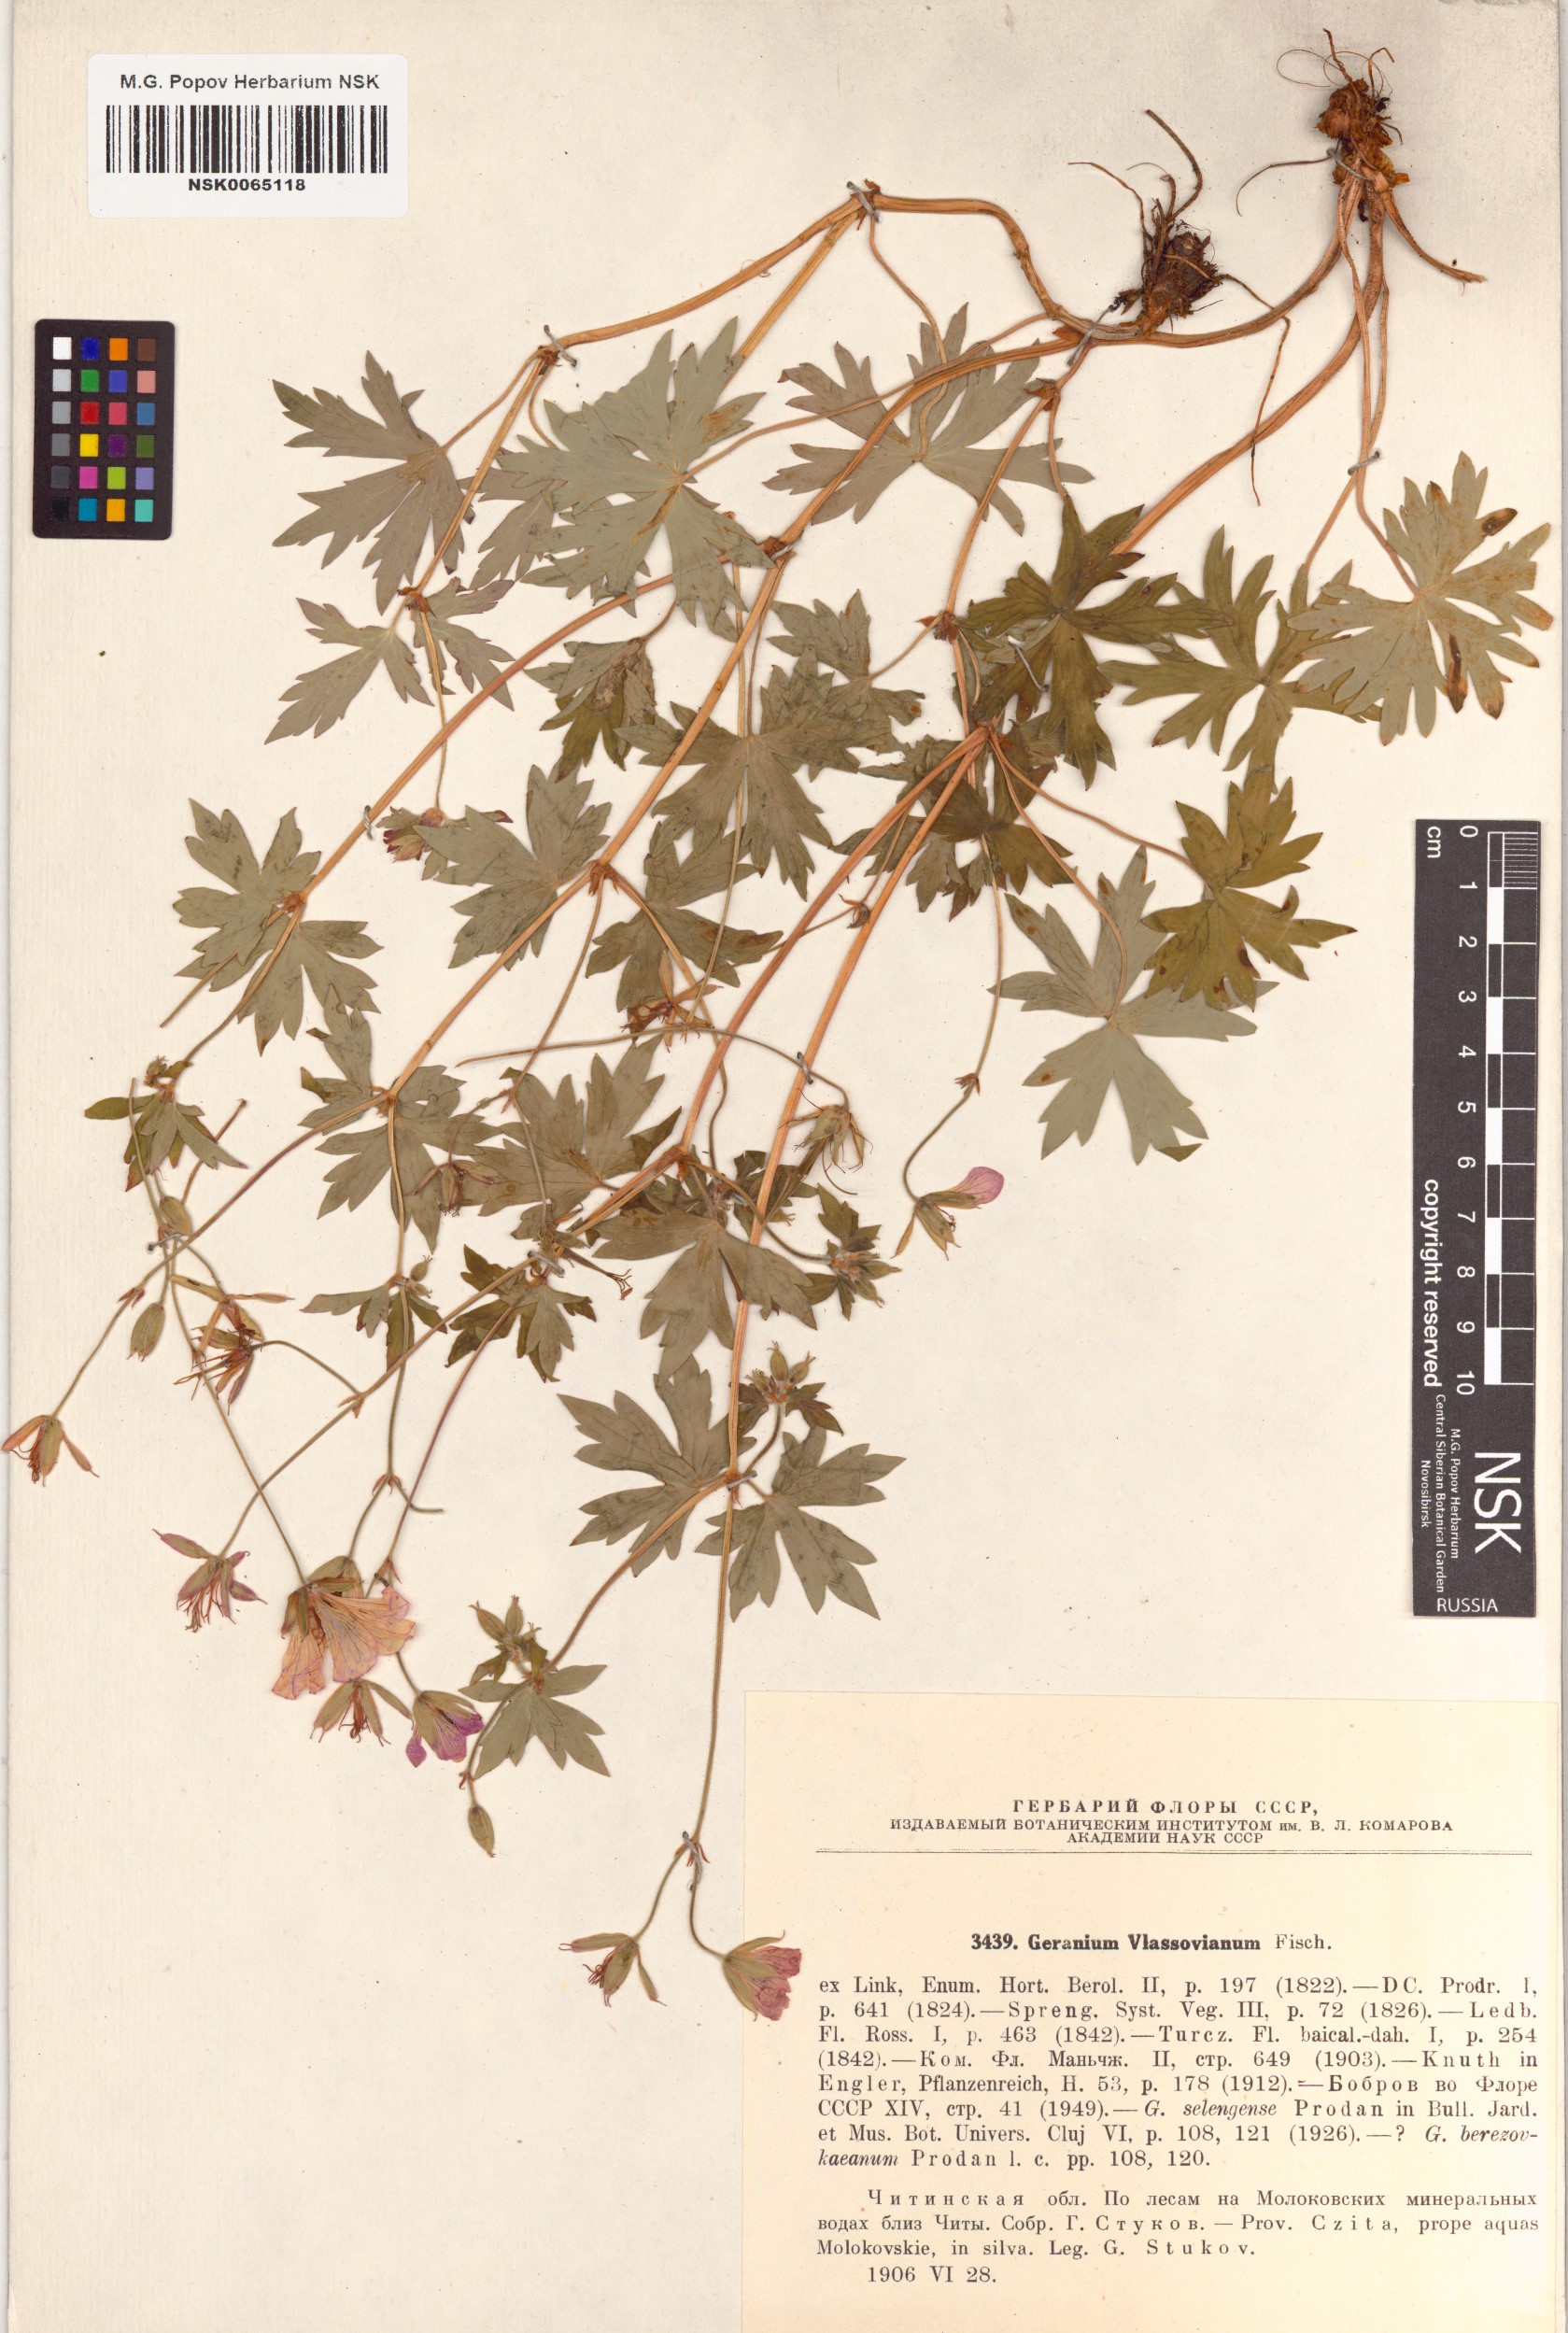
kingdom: Plantae
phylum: Tracheophyta
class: Magnoliopsida
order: Geraniales
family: Geraniaceae
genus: Geranium
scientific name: Geranium wlassovianum
